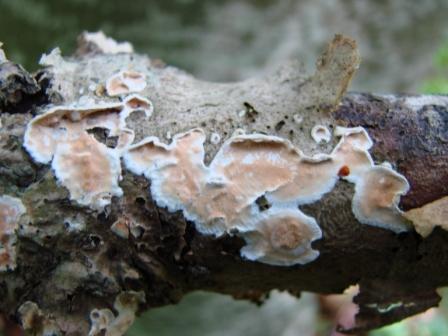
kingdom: Fungi
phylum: Basidiomycota
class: Agaricomycetes
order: Polyporales
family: Irpicaceae
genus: Byssomerulius
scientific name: Byssomerulius corium
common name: læder-åresvamp
